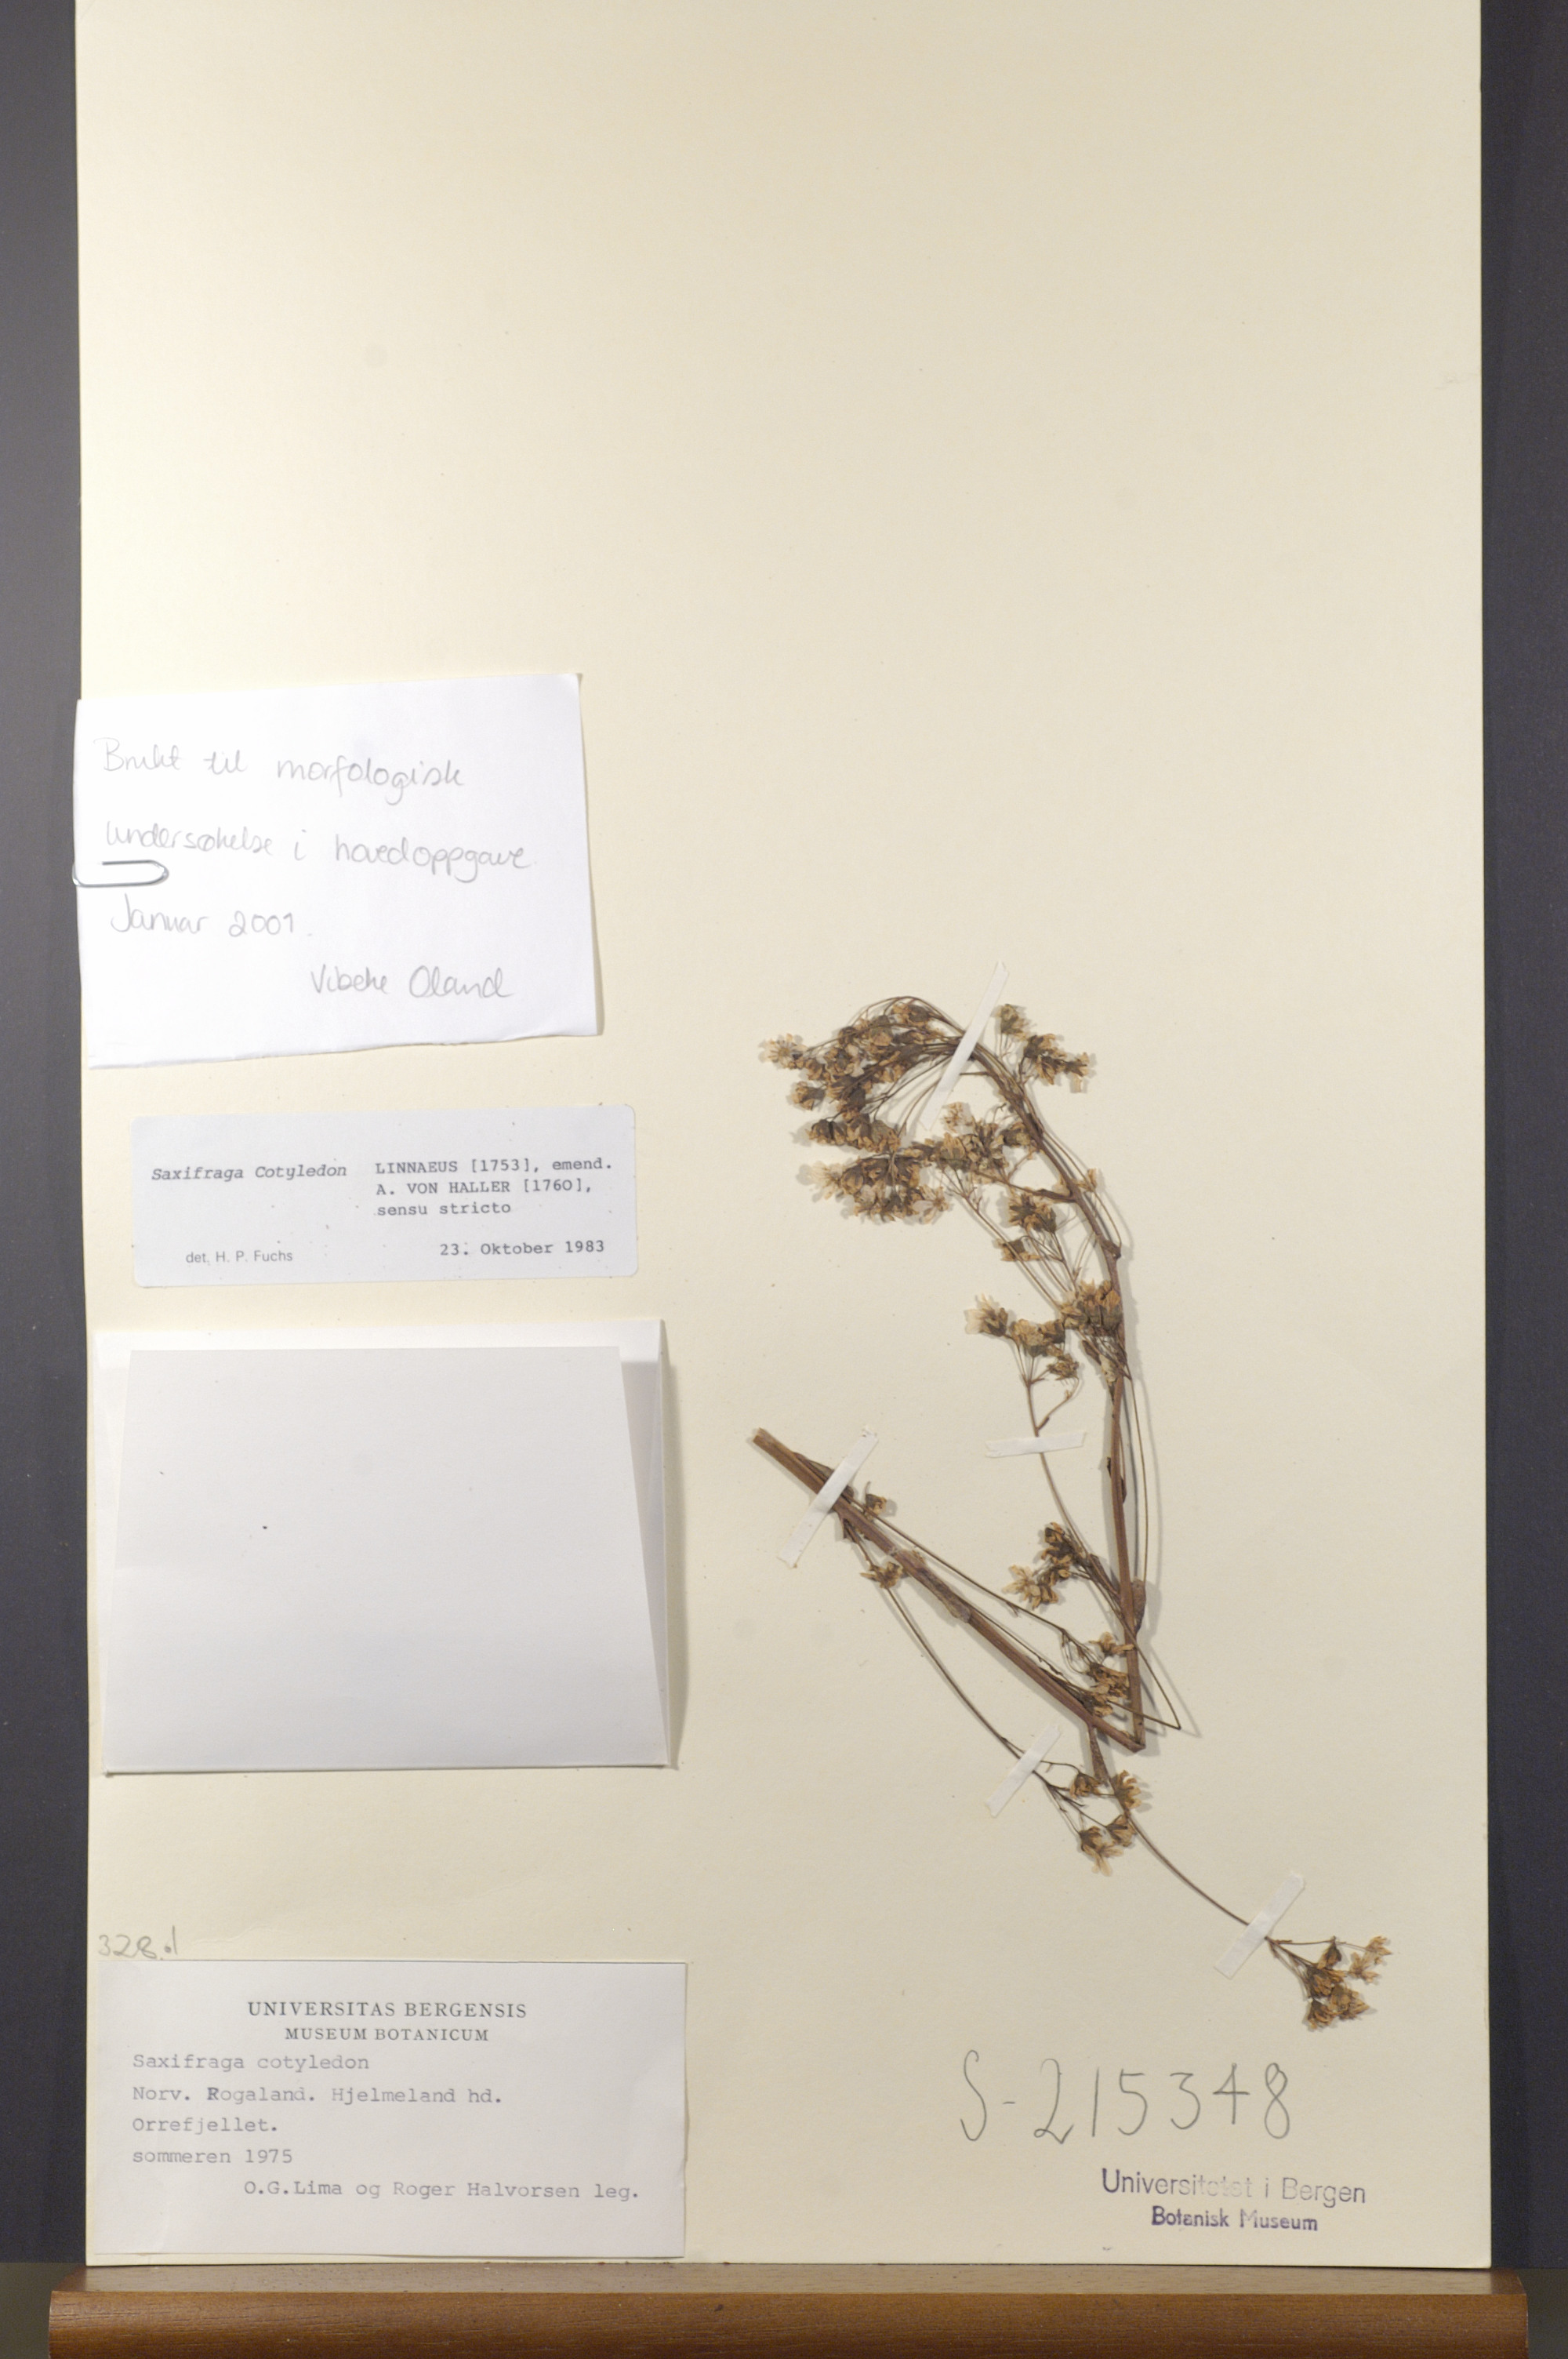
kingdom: Plantae
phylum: Tracheophyta
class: Magnoliopsida
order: Saxifragales
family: Saxifragaceae
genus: Saxifraga
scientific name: Saxifraga cotyledon
